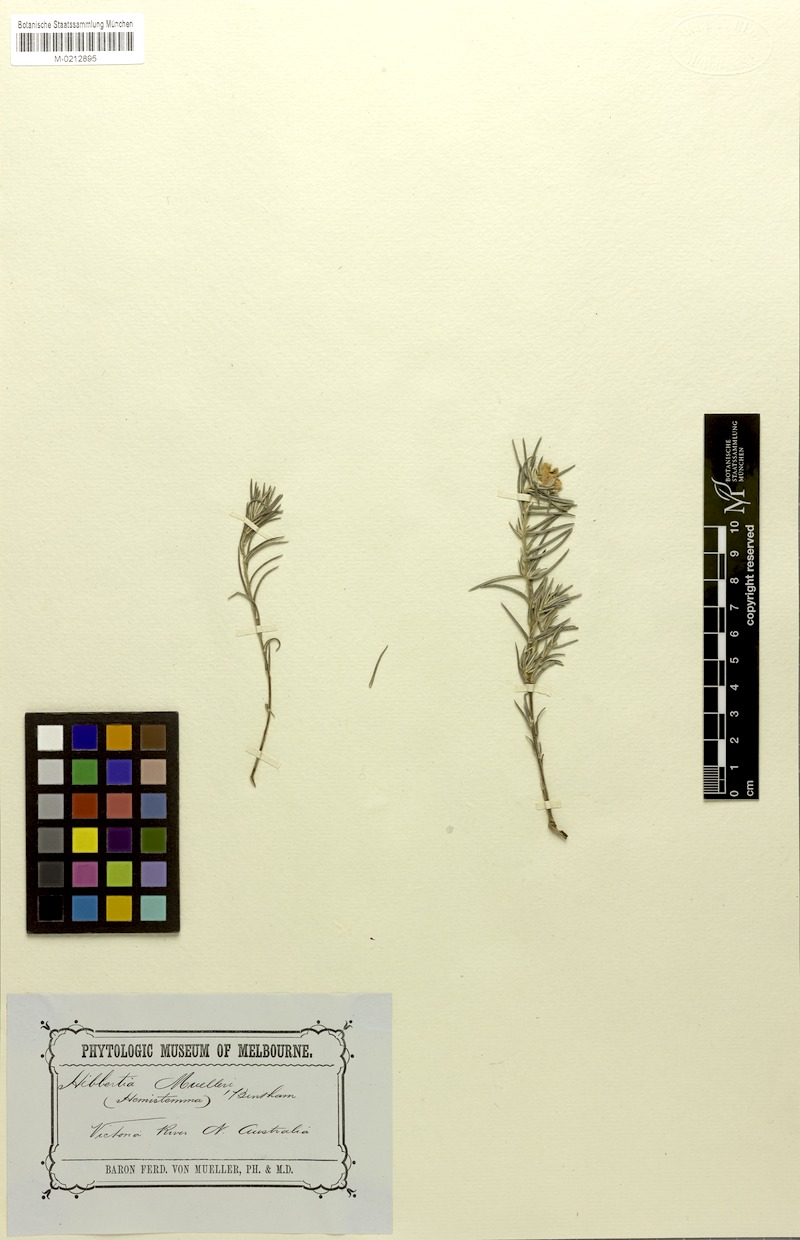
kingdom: Plantae
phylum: Tracheophyta
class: Magnoliopsida
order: Dilleniales
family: Dilleniaceae
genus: Hibbertia
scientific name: Hibbertia muelleri
